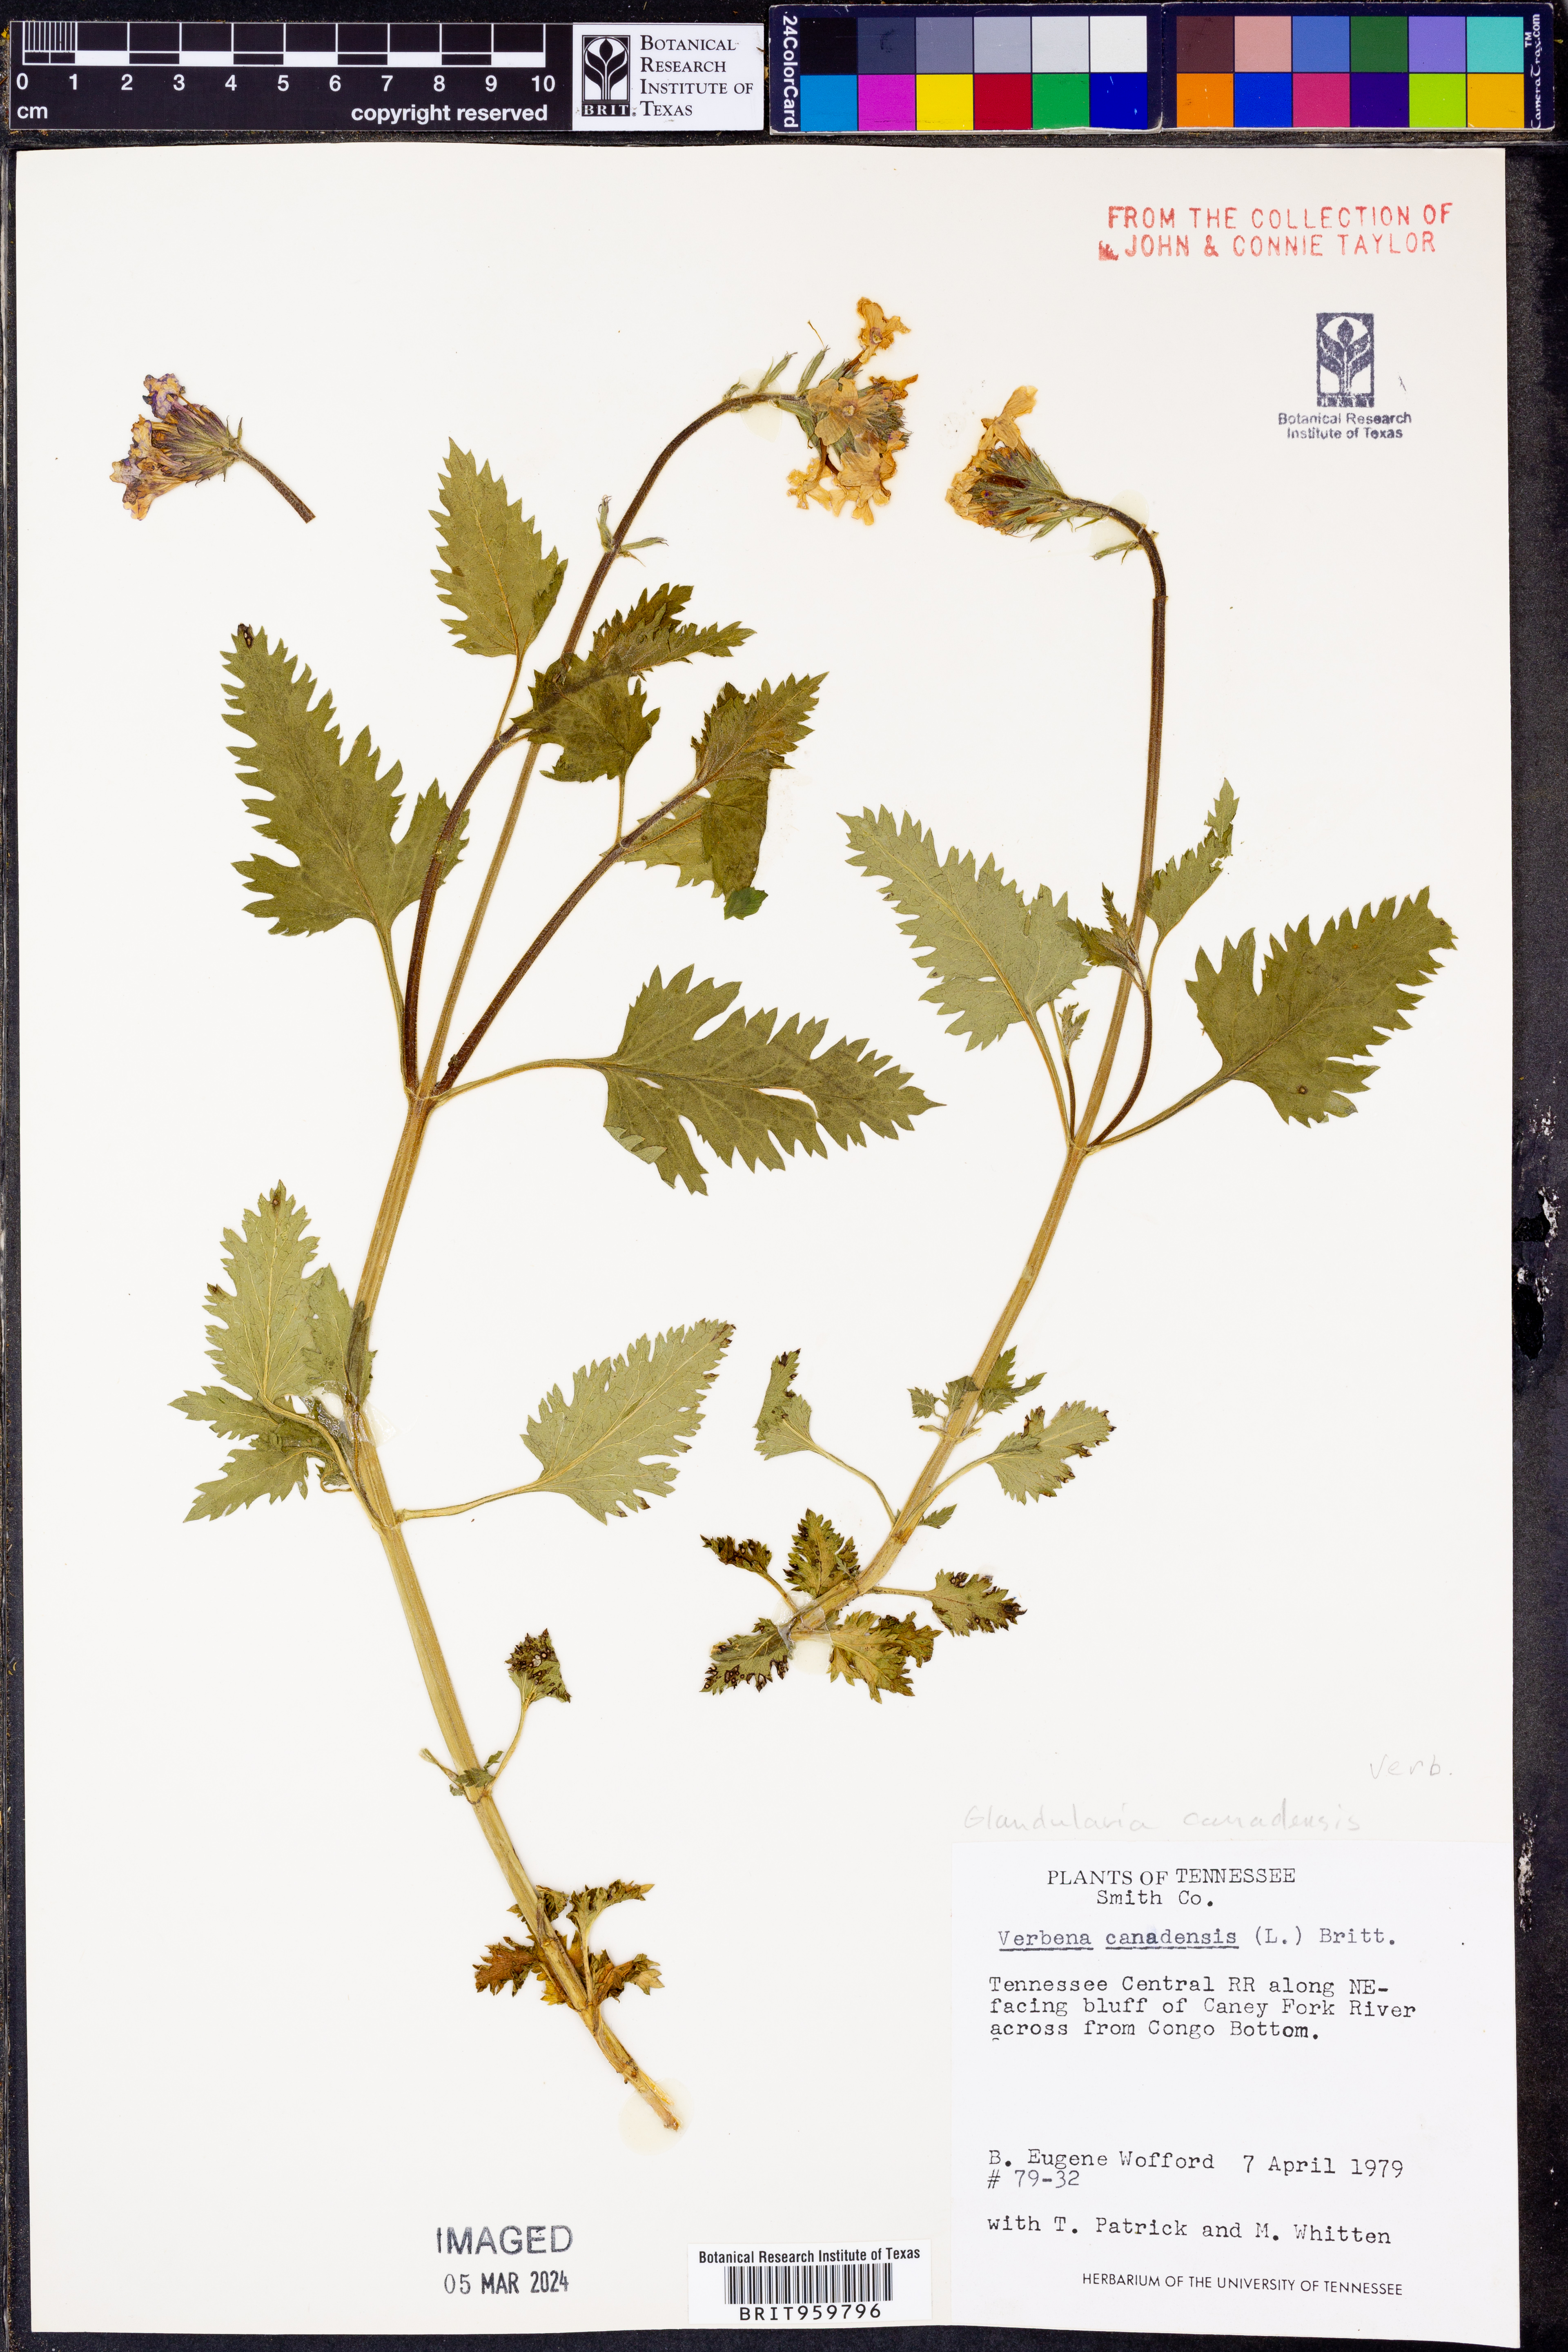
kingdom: Plantae
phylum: Tracheophyta
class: Magnoliopsida
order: Lamiales
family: Verbenaceae
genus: Verbena
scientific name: Verbena canadensis
